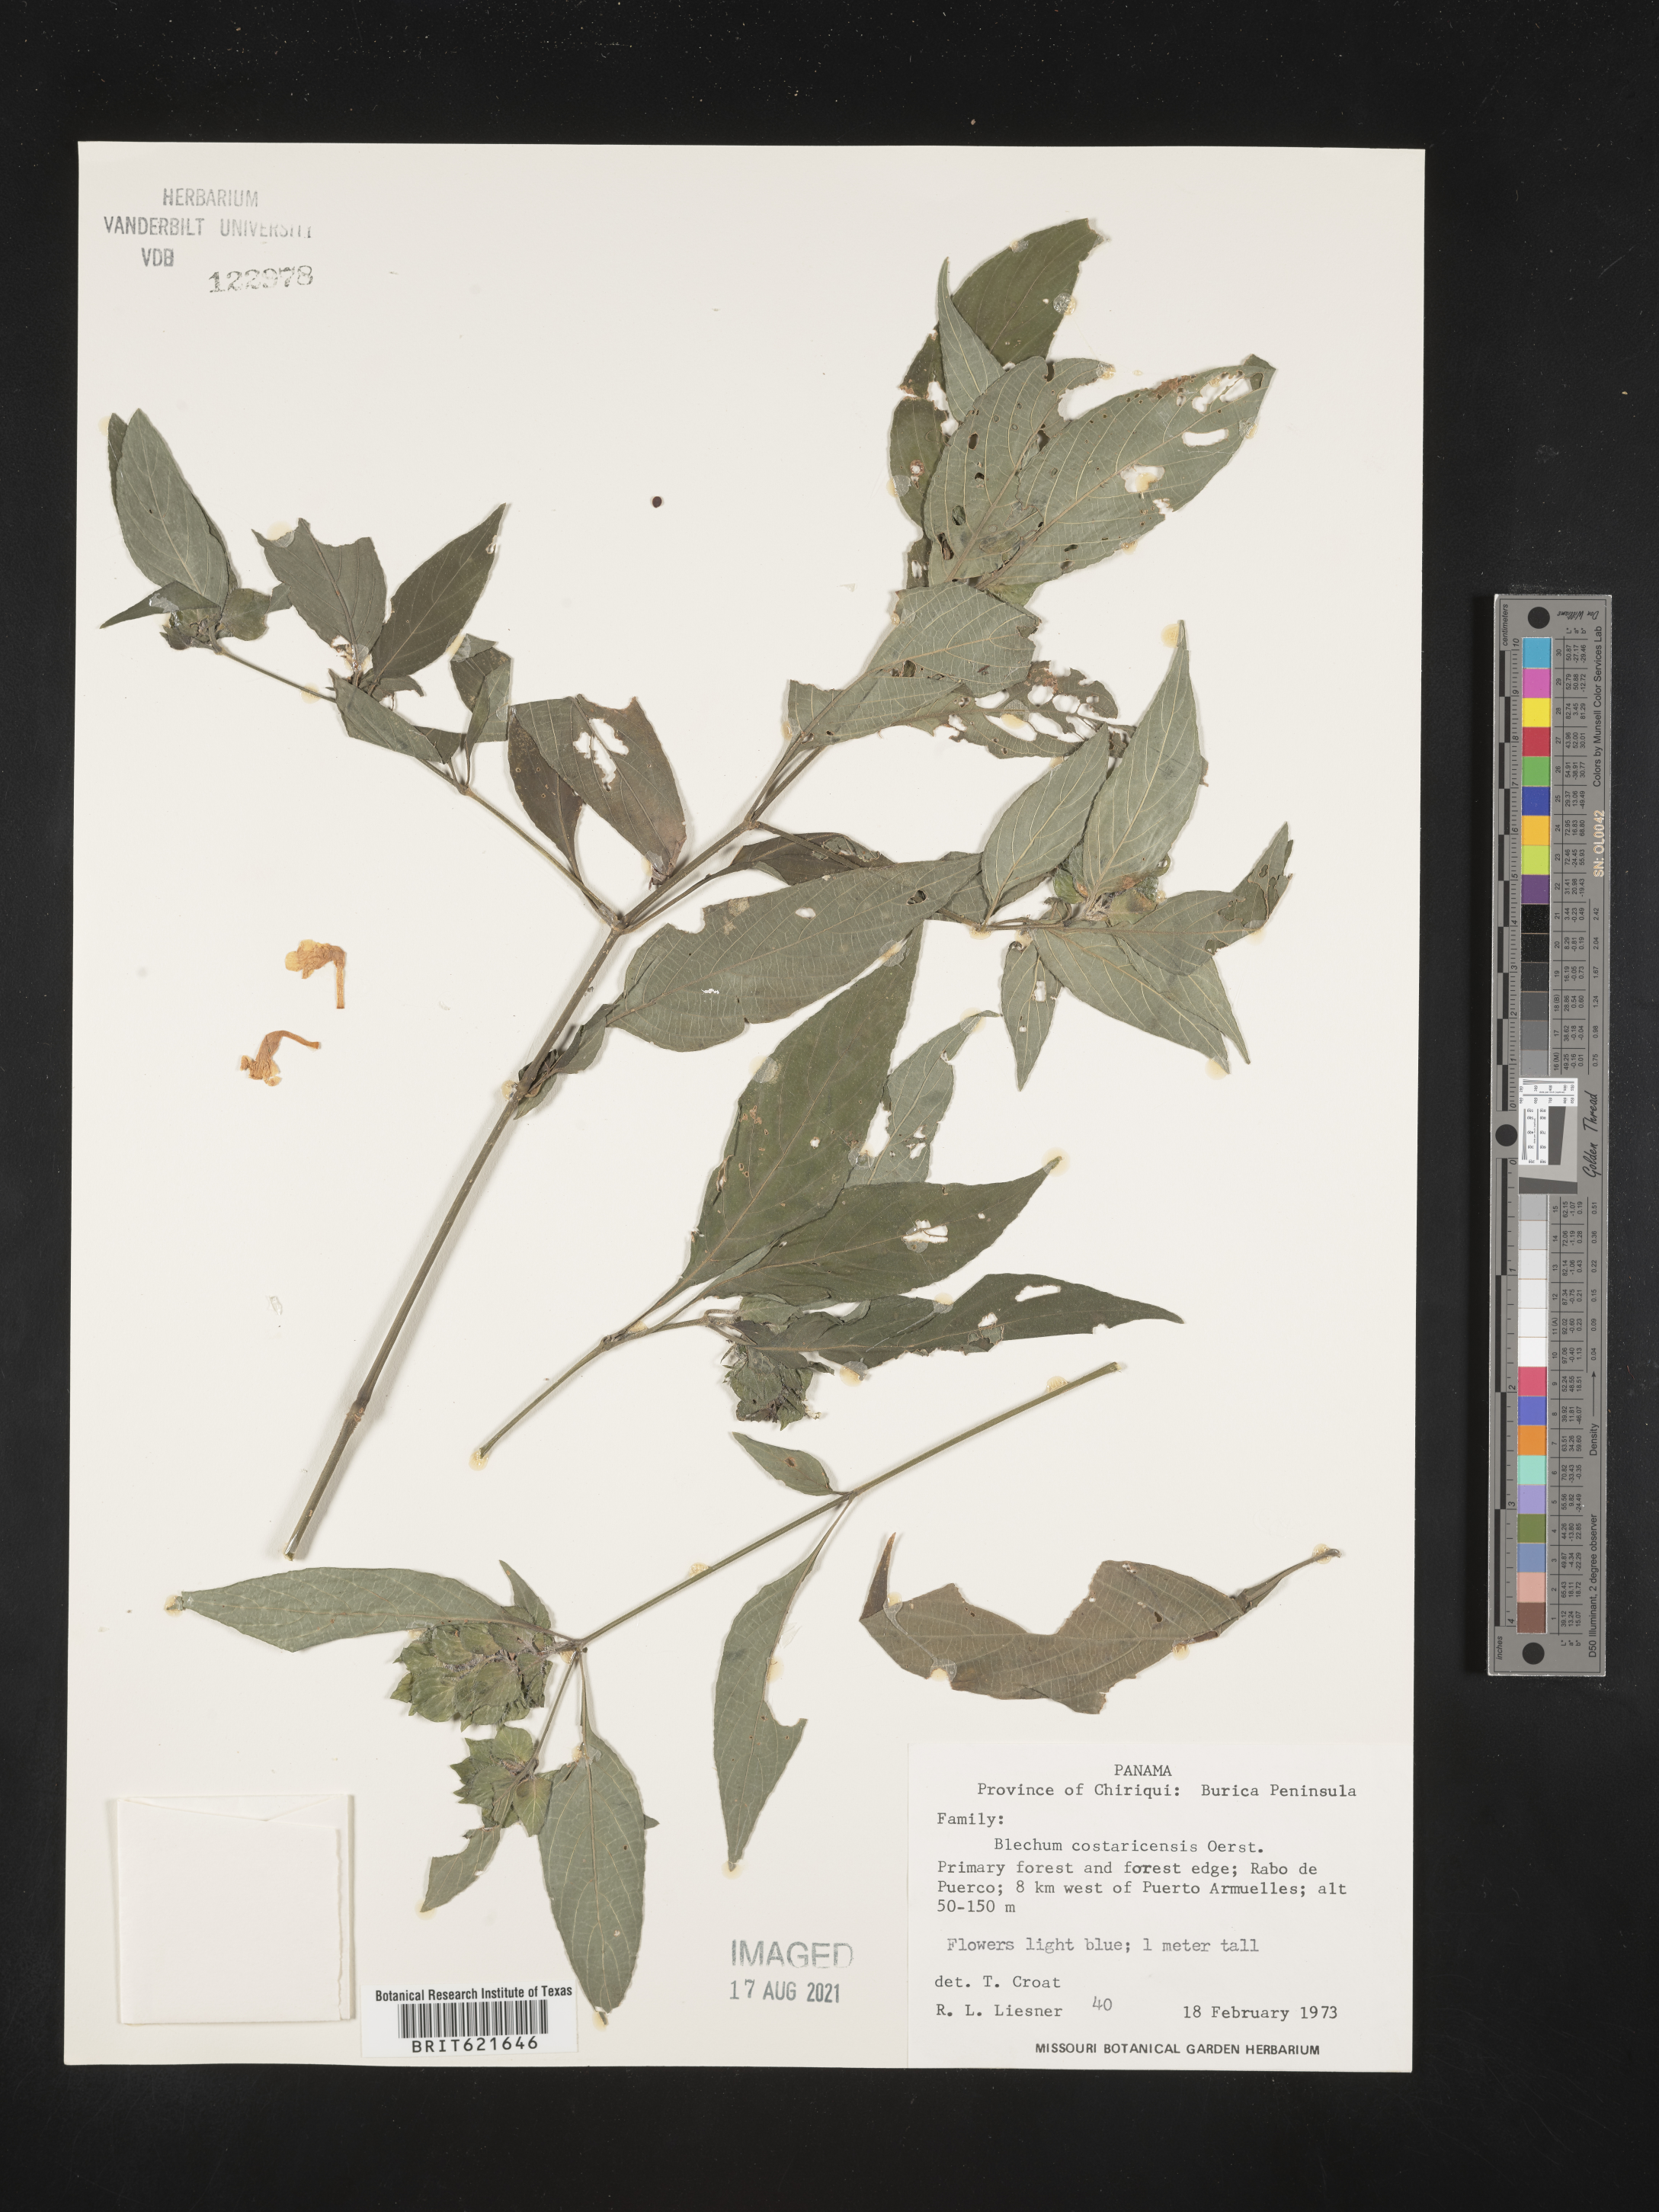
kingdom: Plantae
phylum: Tracheophyta
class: Magnoliopsida
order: Lamiales
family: Acanthaceae
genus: Ruellia
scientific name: Ruellia costaricensis
